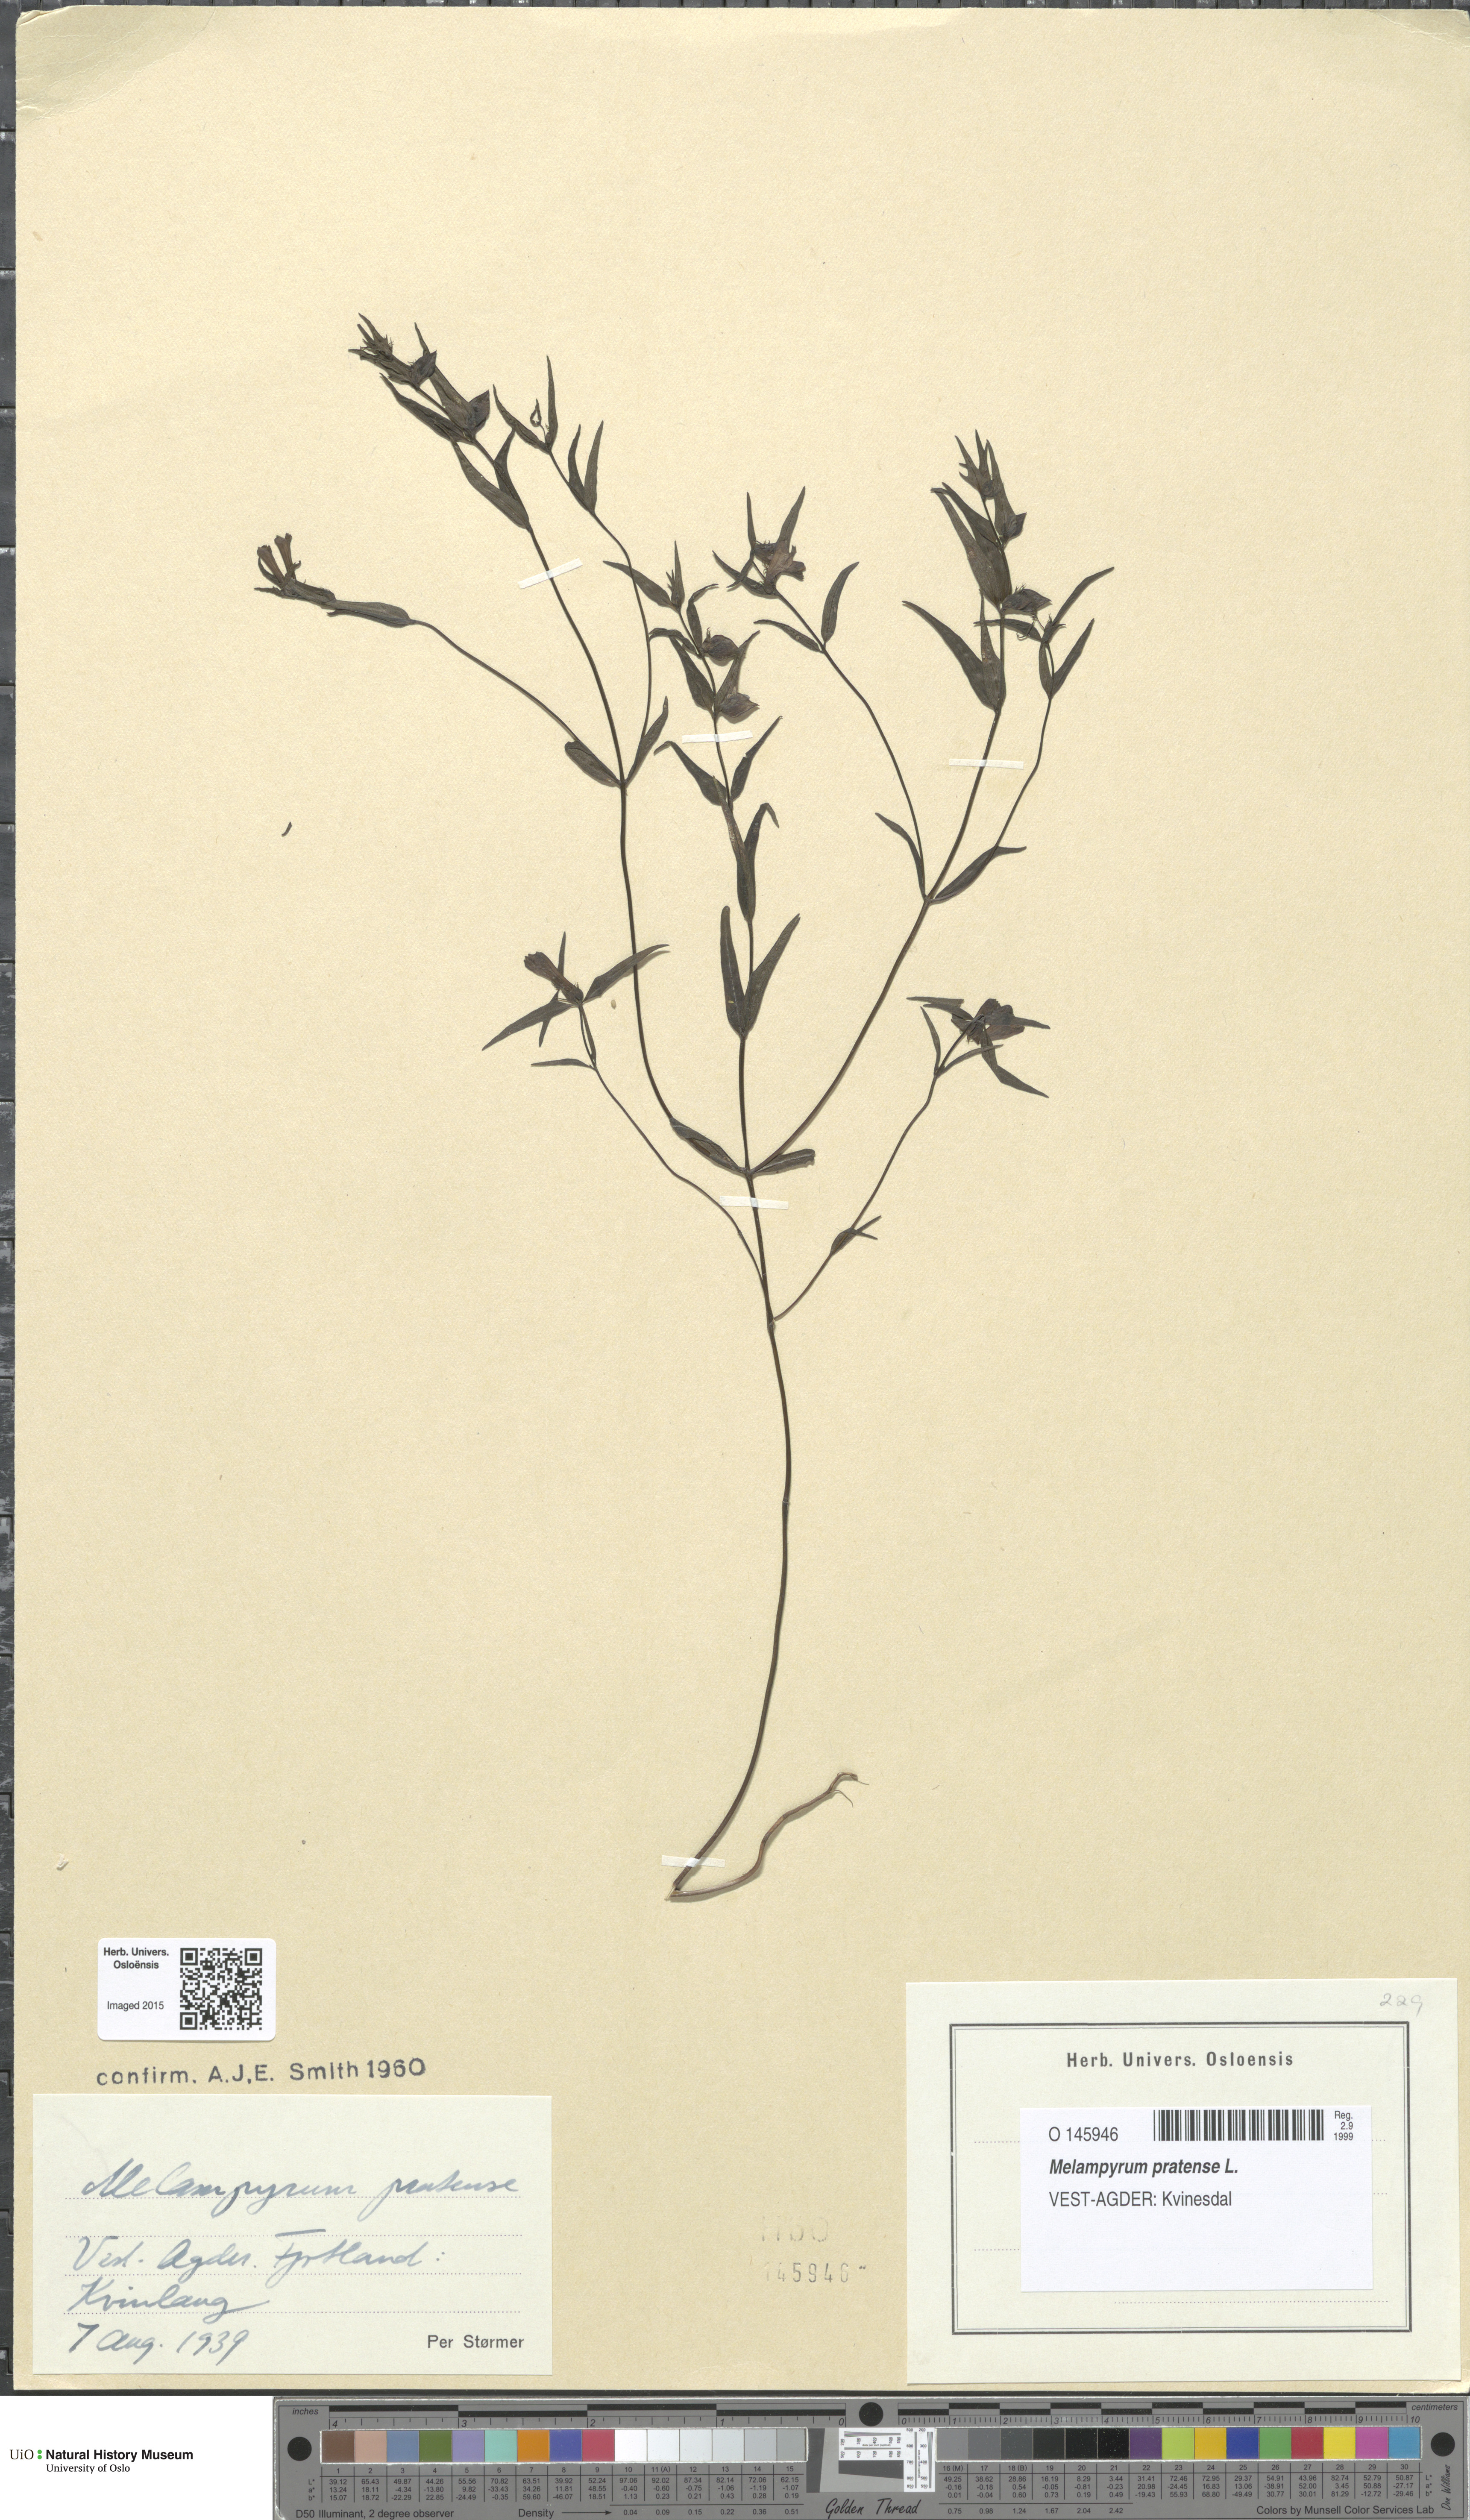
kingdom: Plantae
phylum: Tracheophyta
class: Magnoliopsida
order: Lamiales
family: Orobanchaceae
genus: Melampyrum
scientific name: Melampyrum pratense
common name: Common cow-wheat
